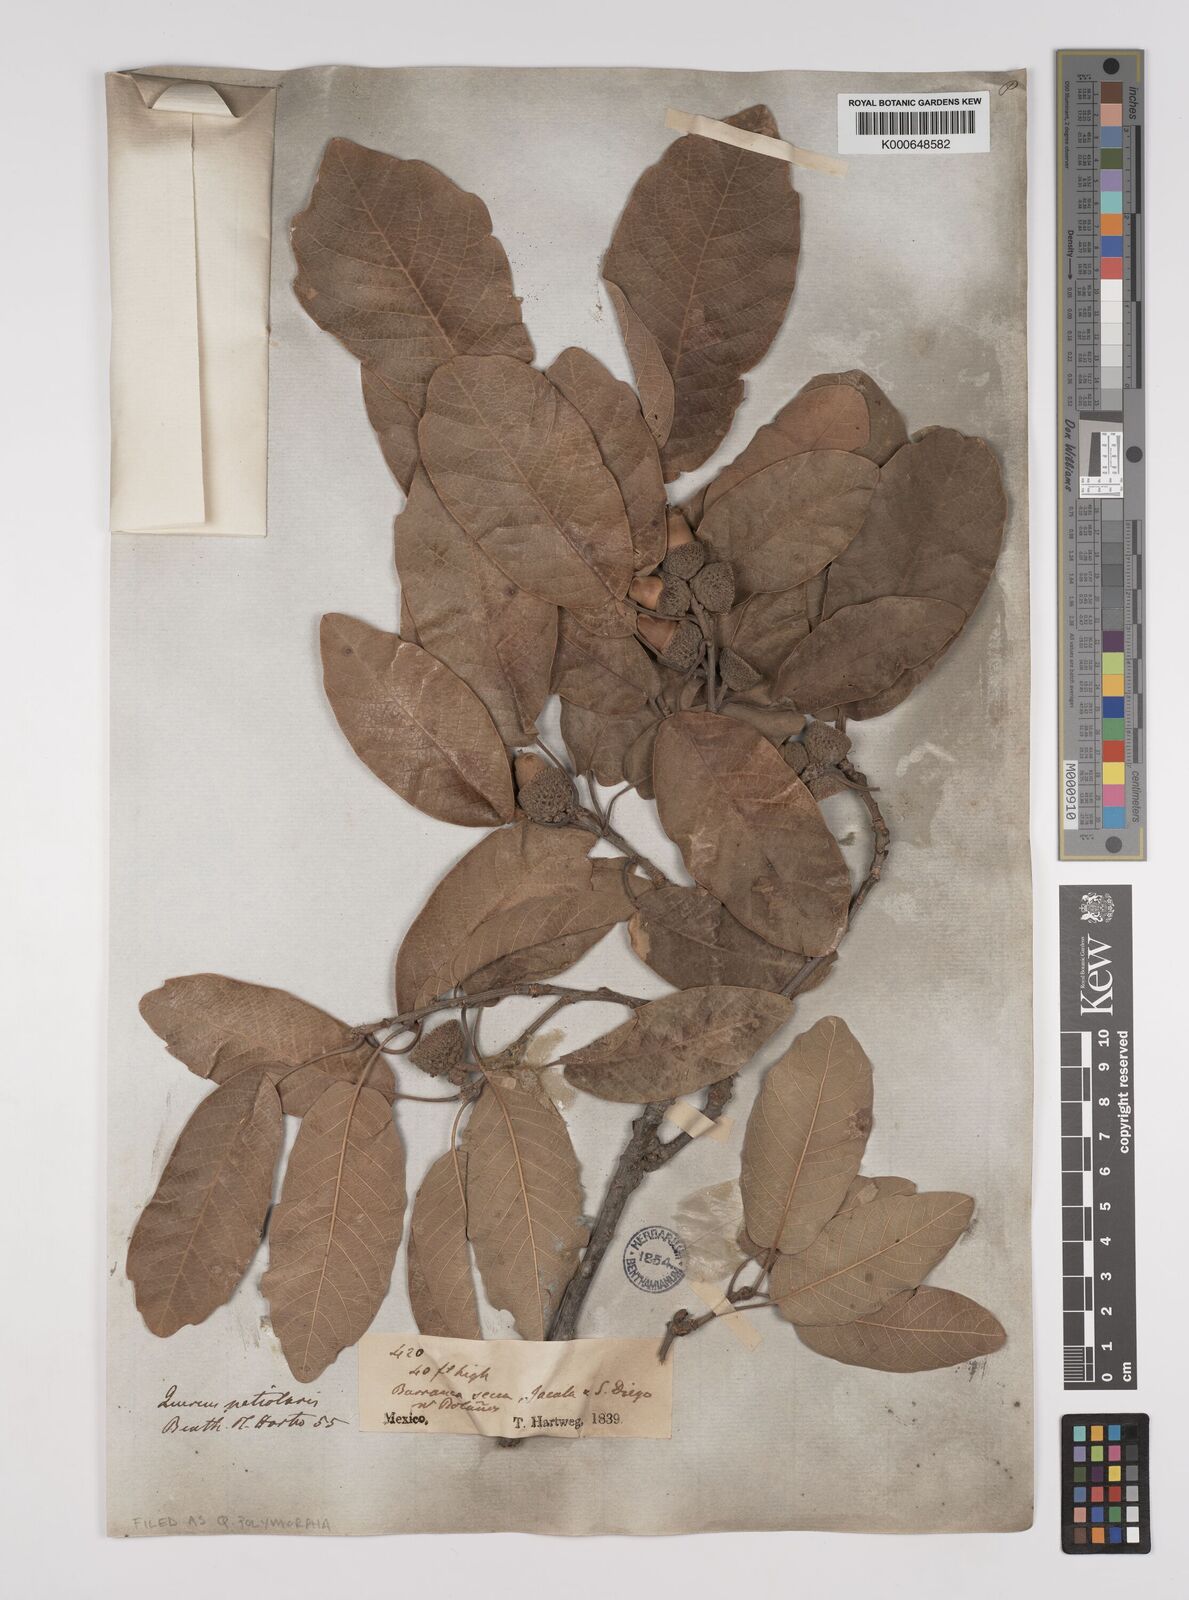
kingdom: Plantae
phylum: Tracheophyta
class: Magnoliopsida
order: Fagales
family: Fagaceae
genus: Quercus
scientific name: Quercus polymorpha
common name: Mexican white oak
